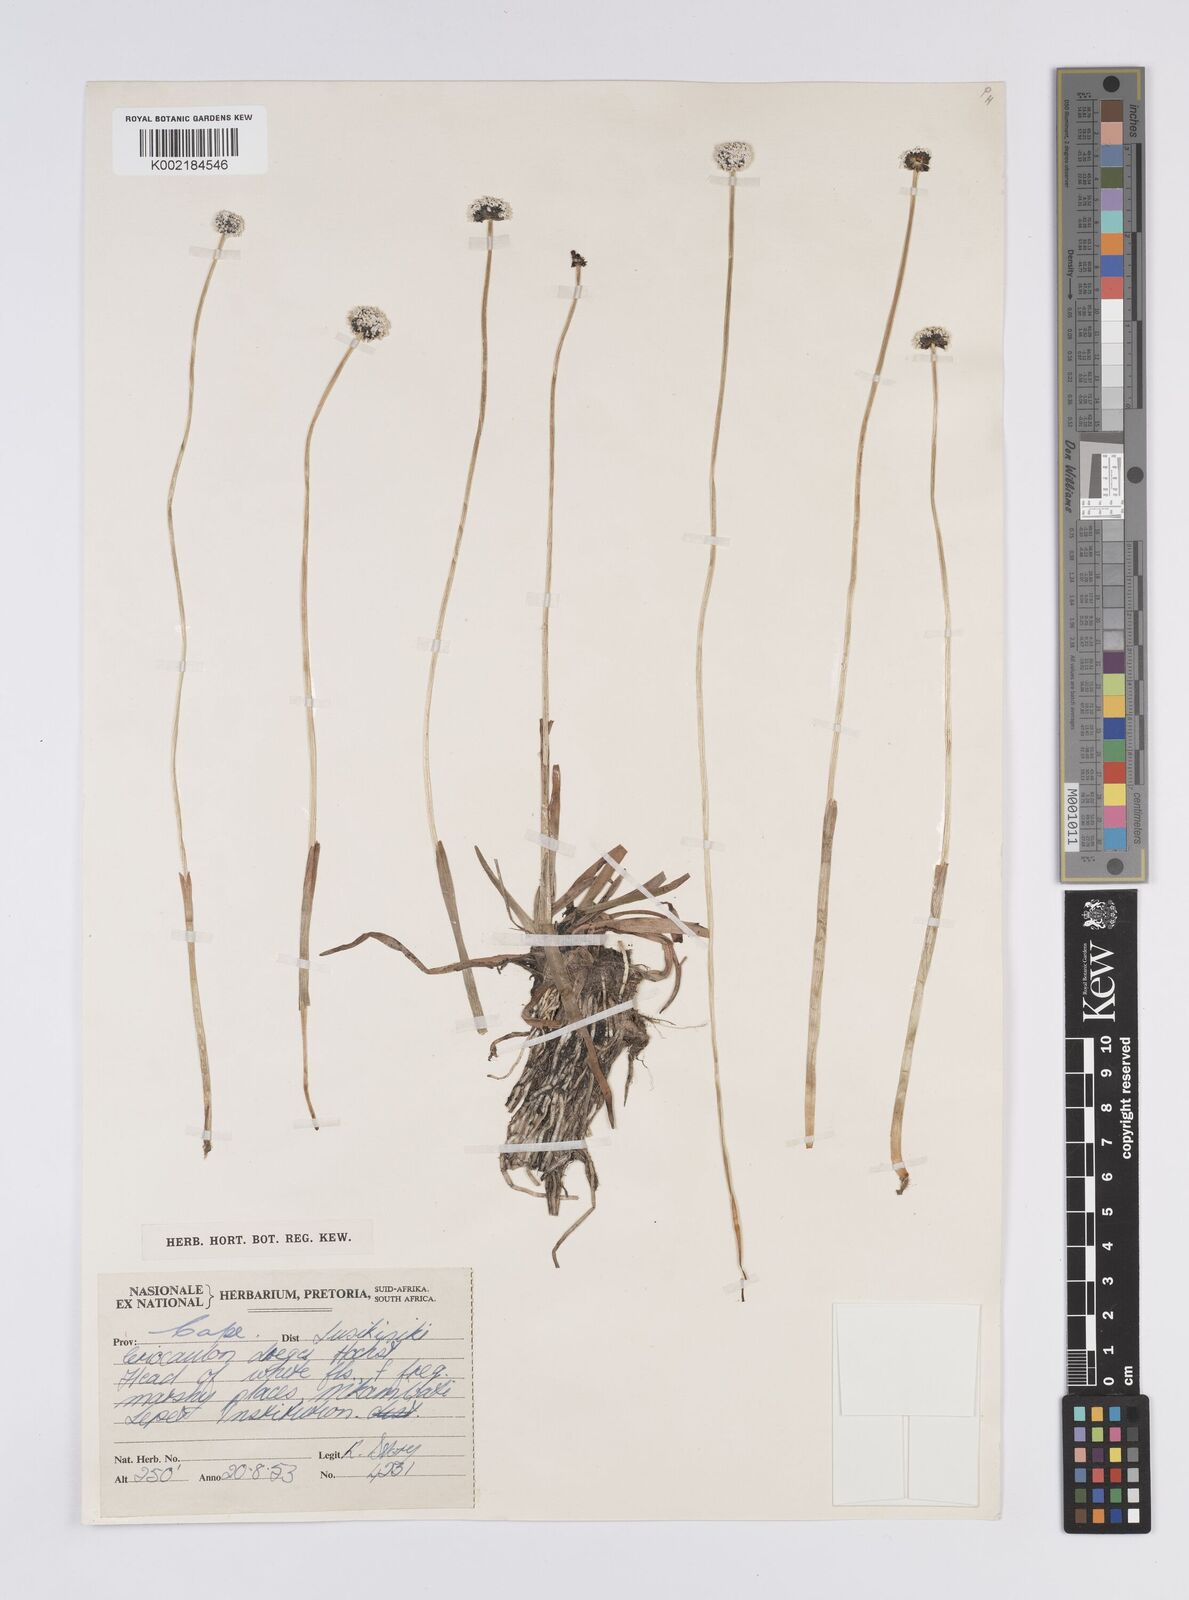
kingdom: Plantae
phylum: Tracheophyta
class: Liliopsida
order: Poales
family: Eriocaulaceae
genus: Eriocaulon
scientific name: Eriocaulon dregei
